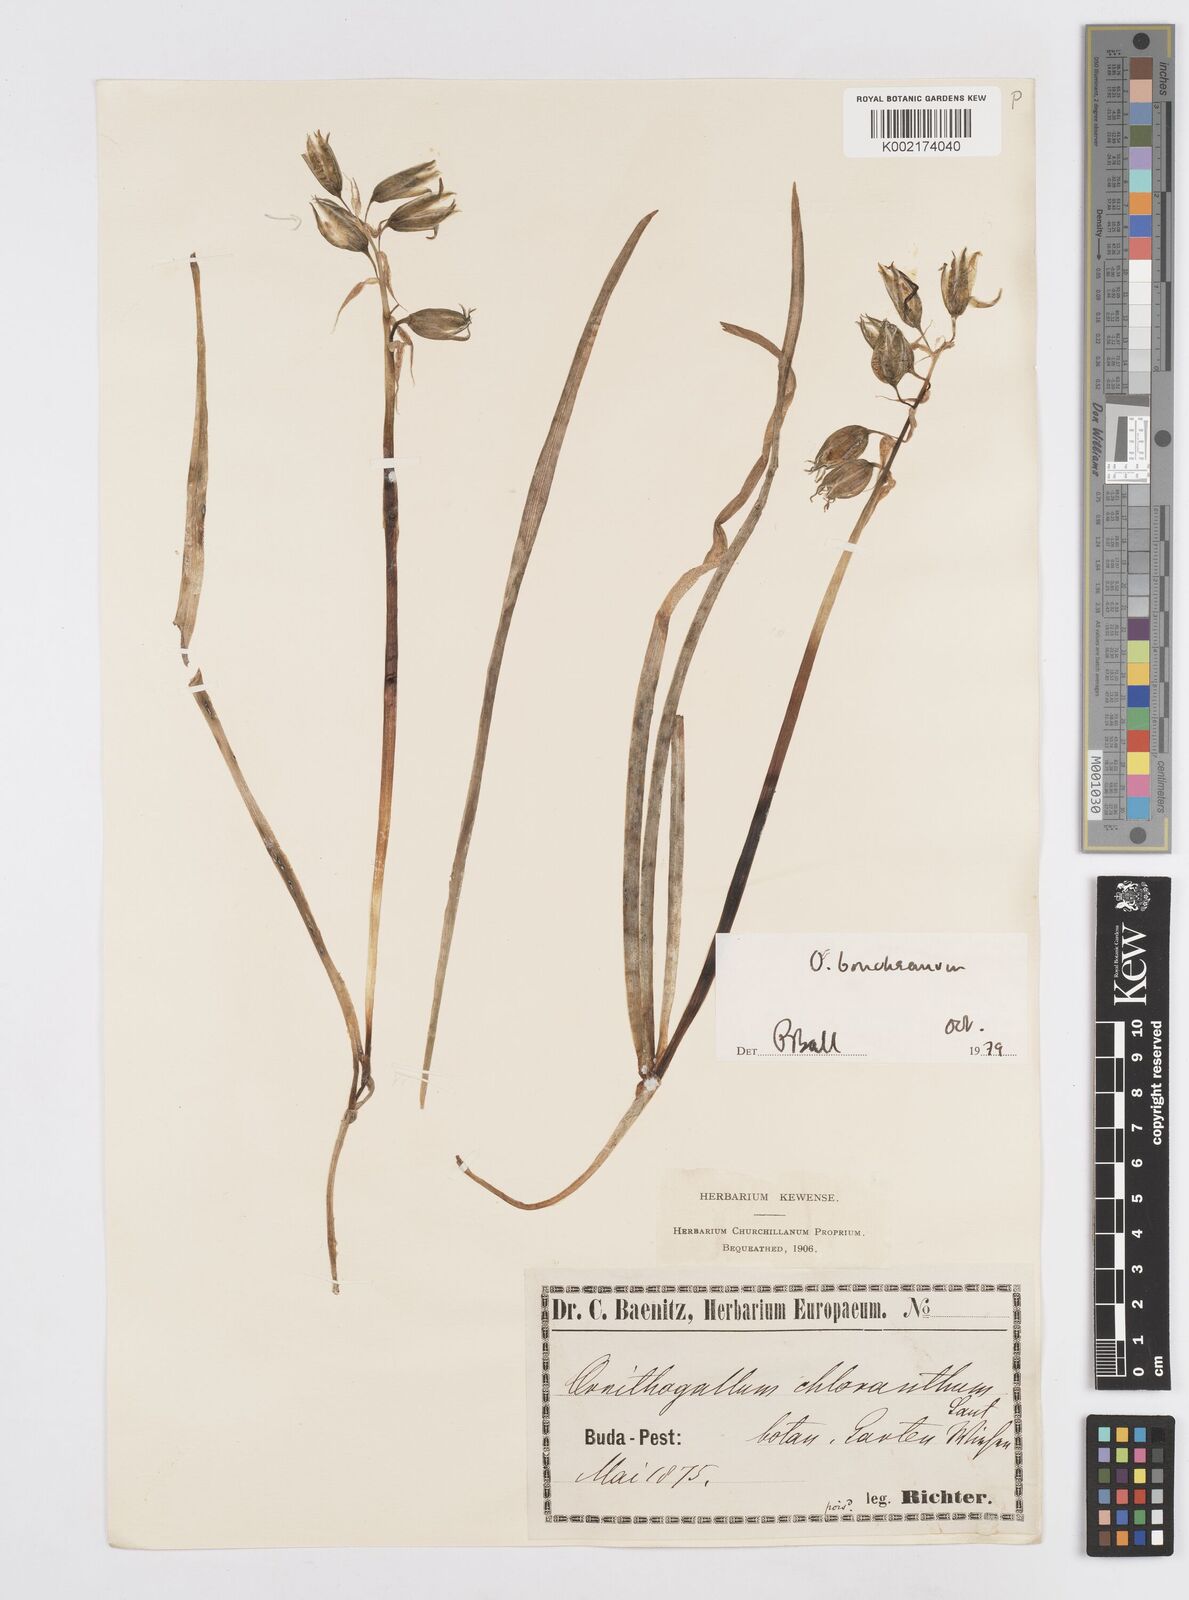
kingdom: Plantae
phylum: Tracheophyta
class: Liliopsida
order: Asparagales
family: Asparagaceae
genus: Ornithogalum
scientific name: Ornithogalum boucheanum
